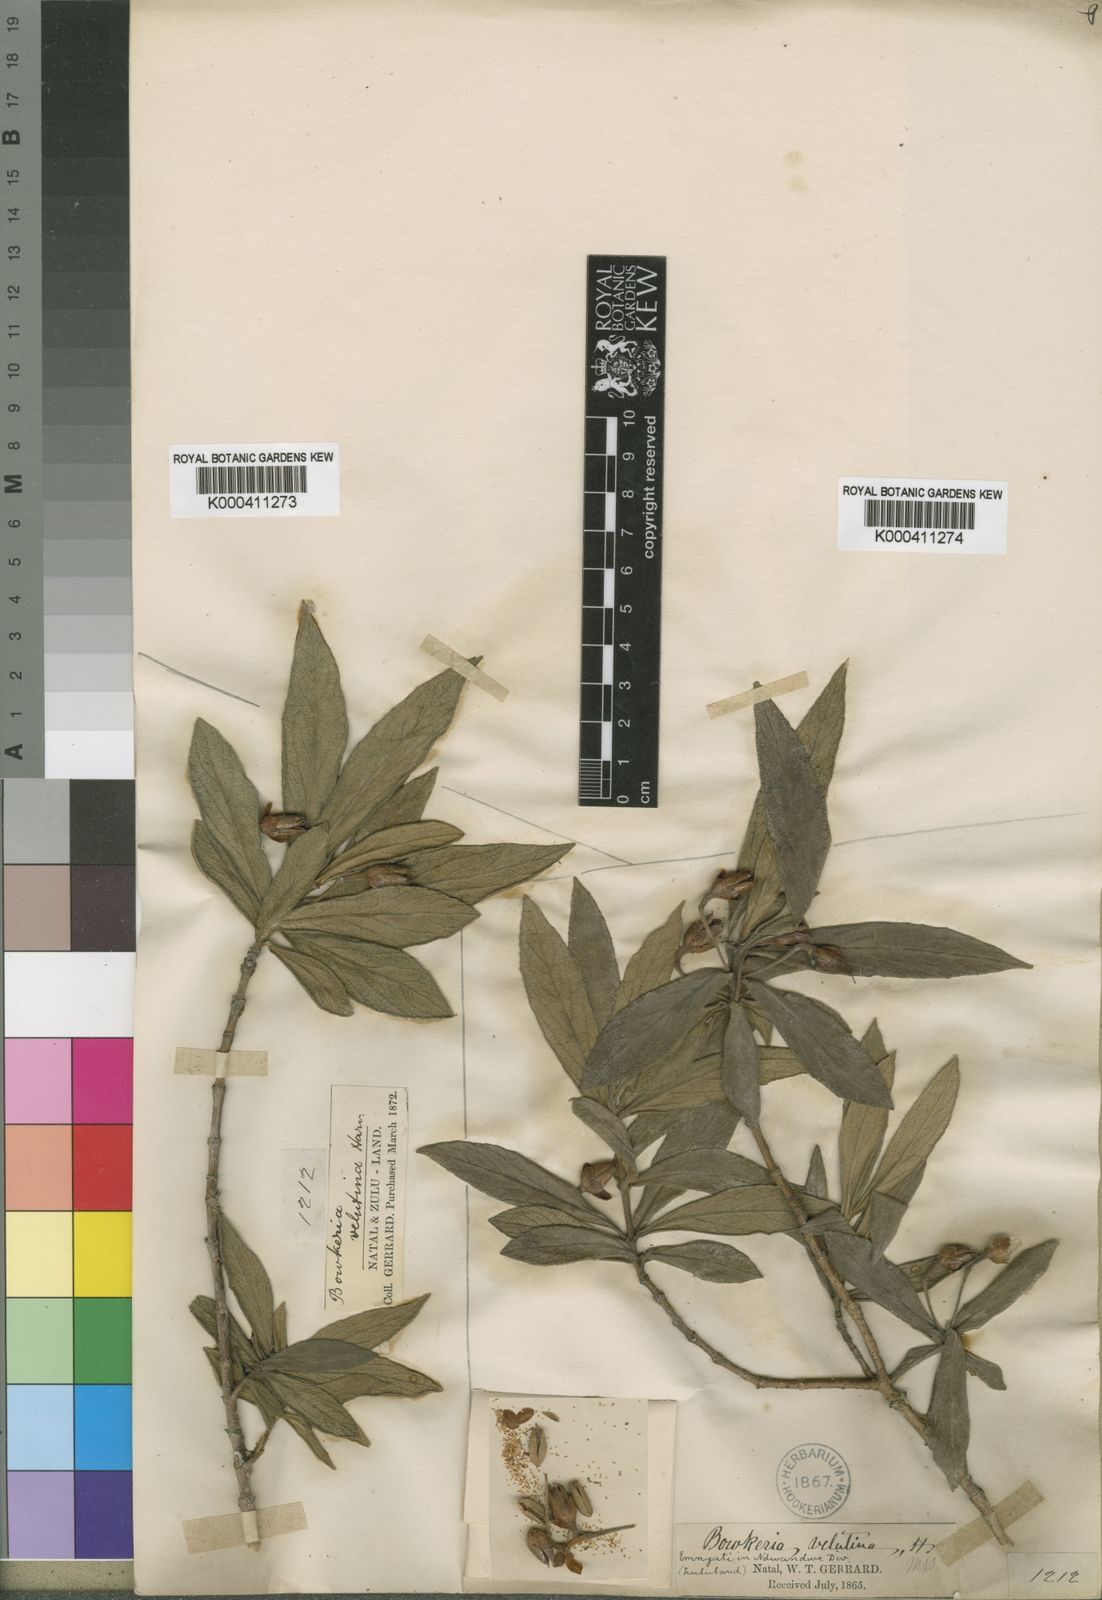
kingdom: Plantae
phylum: Tracheophyta
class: Magnoliopsida
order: Lamiales
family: Stilbaceae
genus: Bowkeria
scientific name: Bowkeria
